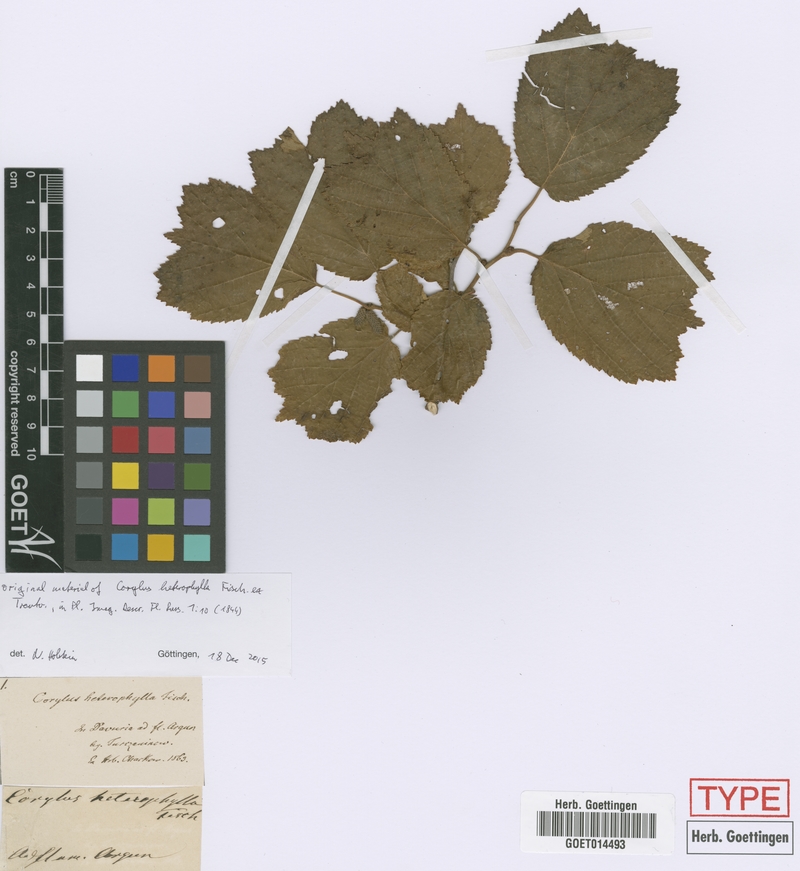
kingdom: Plantae
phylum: Tracheophyta
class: Magnoliopsida
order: Fagales
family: Betulaceae
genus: Corylus
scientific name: Corylus heterophylla
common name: Siberian hazelnut
